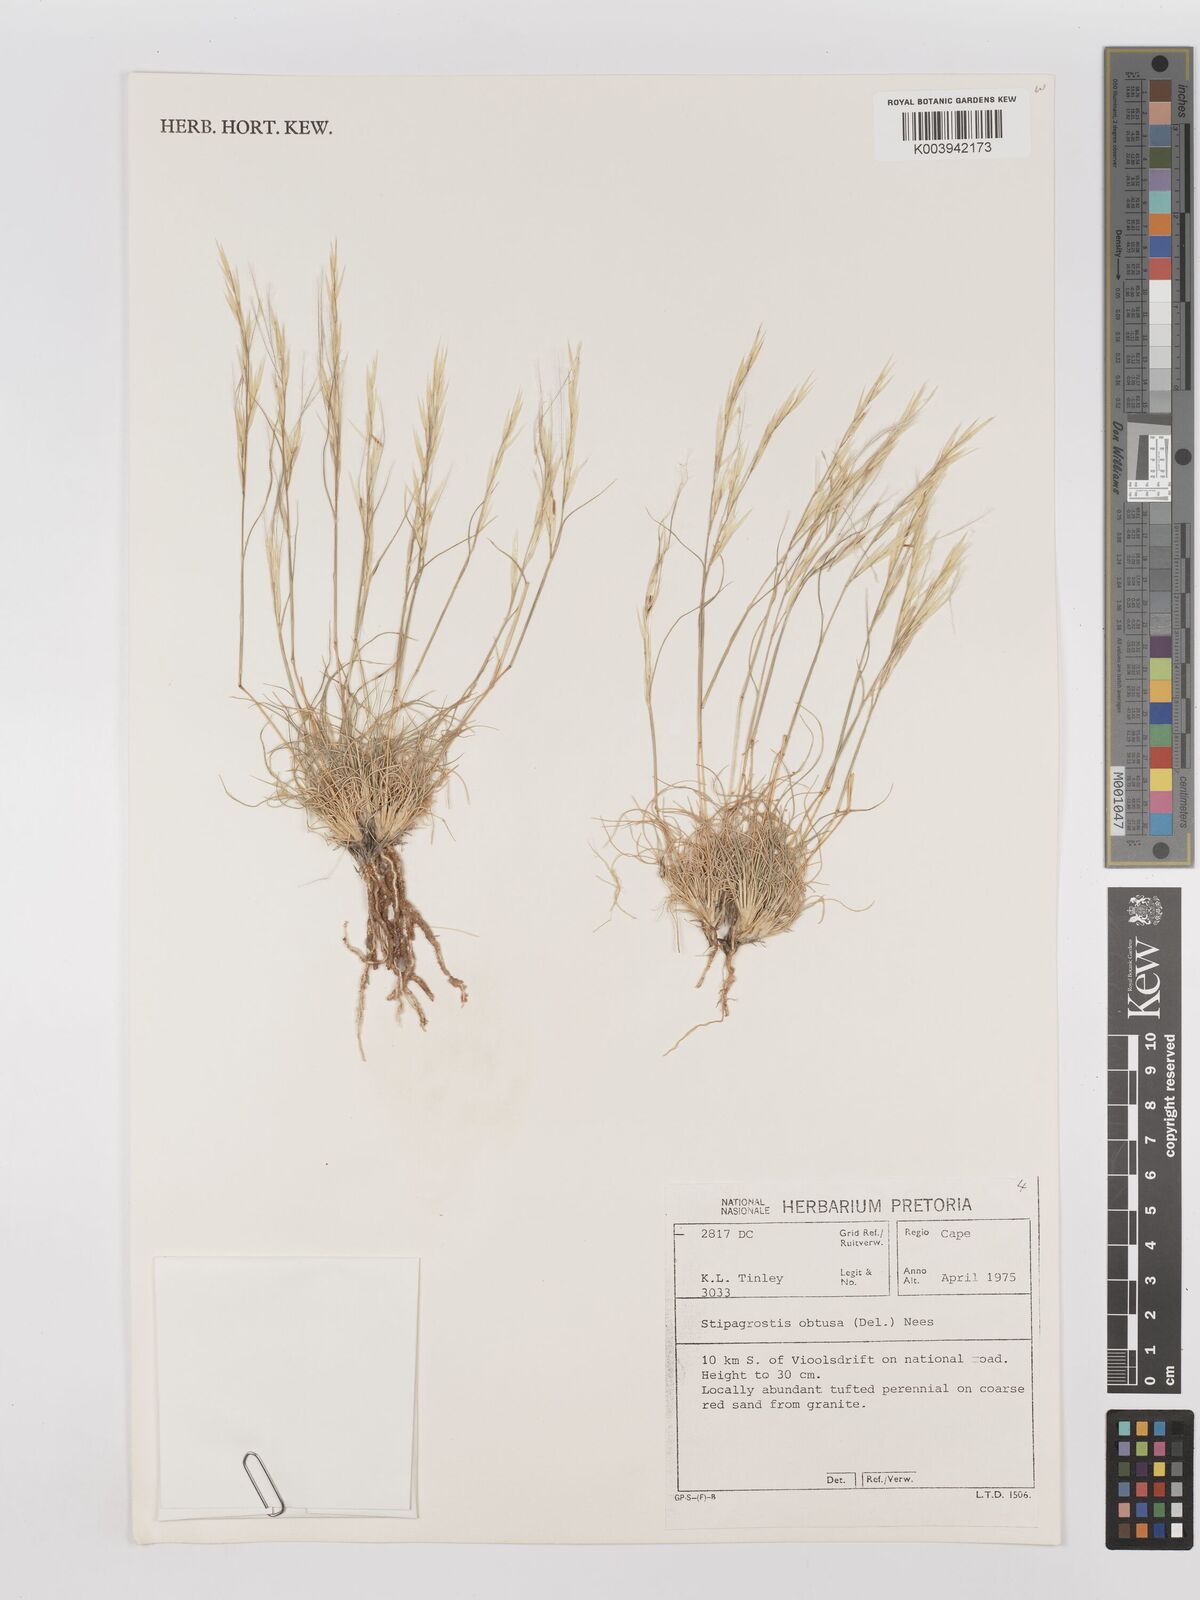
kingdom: Plantae
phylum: Tracheophyta
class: Liliopsida
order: Poales
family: Poaceae
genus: Stipagrostis
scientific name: Stipagrostis obtusa
